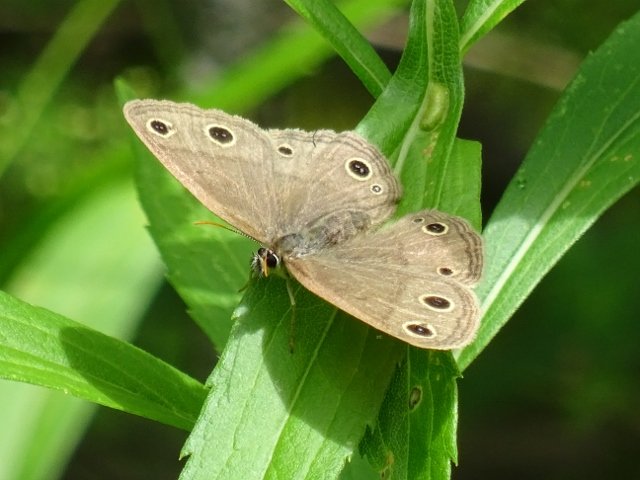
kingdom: Animalia
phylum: Arthropoda
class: Insecta
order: Lepidoptera
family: Nymphalidae
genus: Euptychia
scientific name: Euptychia cymela
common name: Little Wood Satyr
